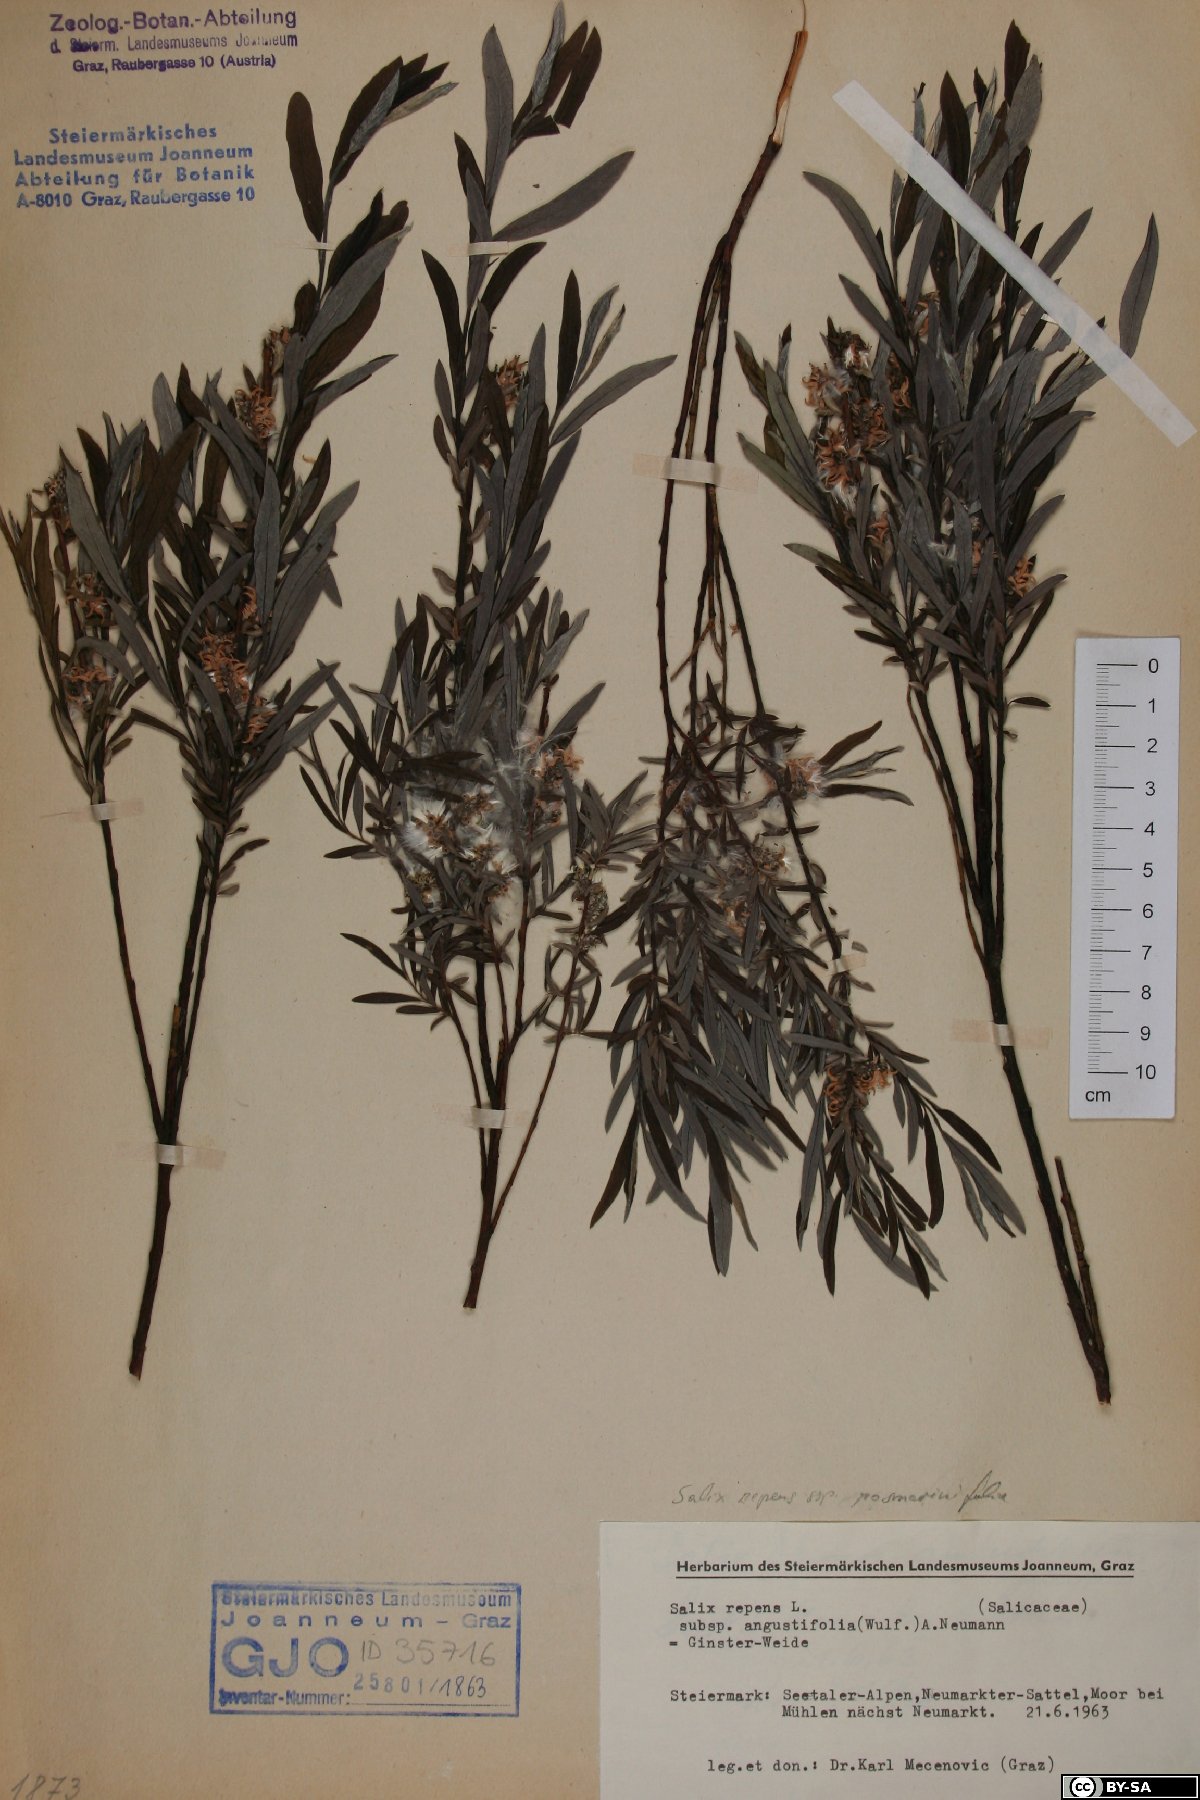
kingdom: Plantae
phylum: Tracheophyta
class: Magnoliopsida
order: Malpighiales
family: Salicaceae
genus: Salix
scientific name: Salix rosmarinifolia
